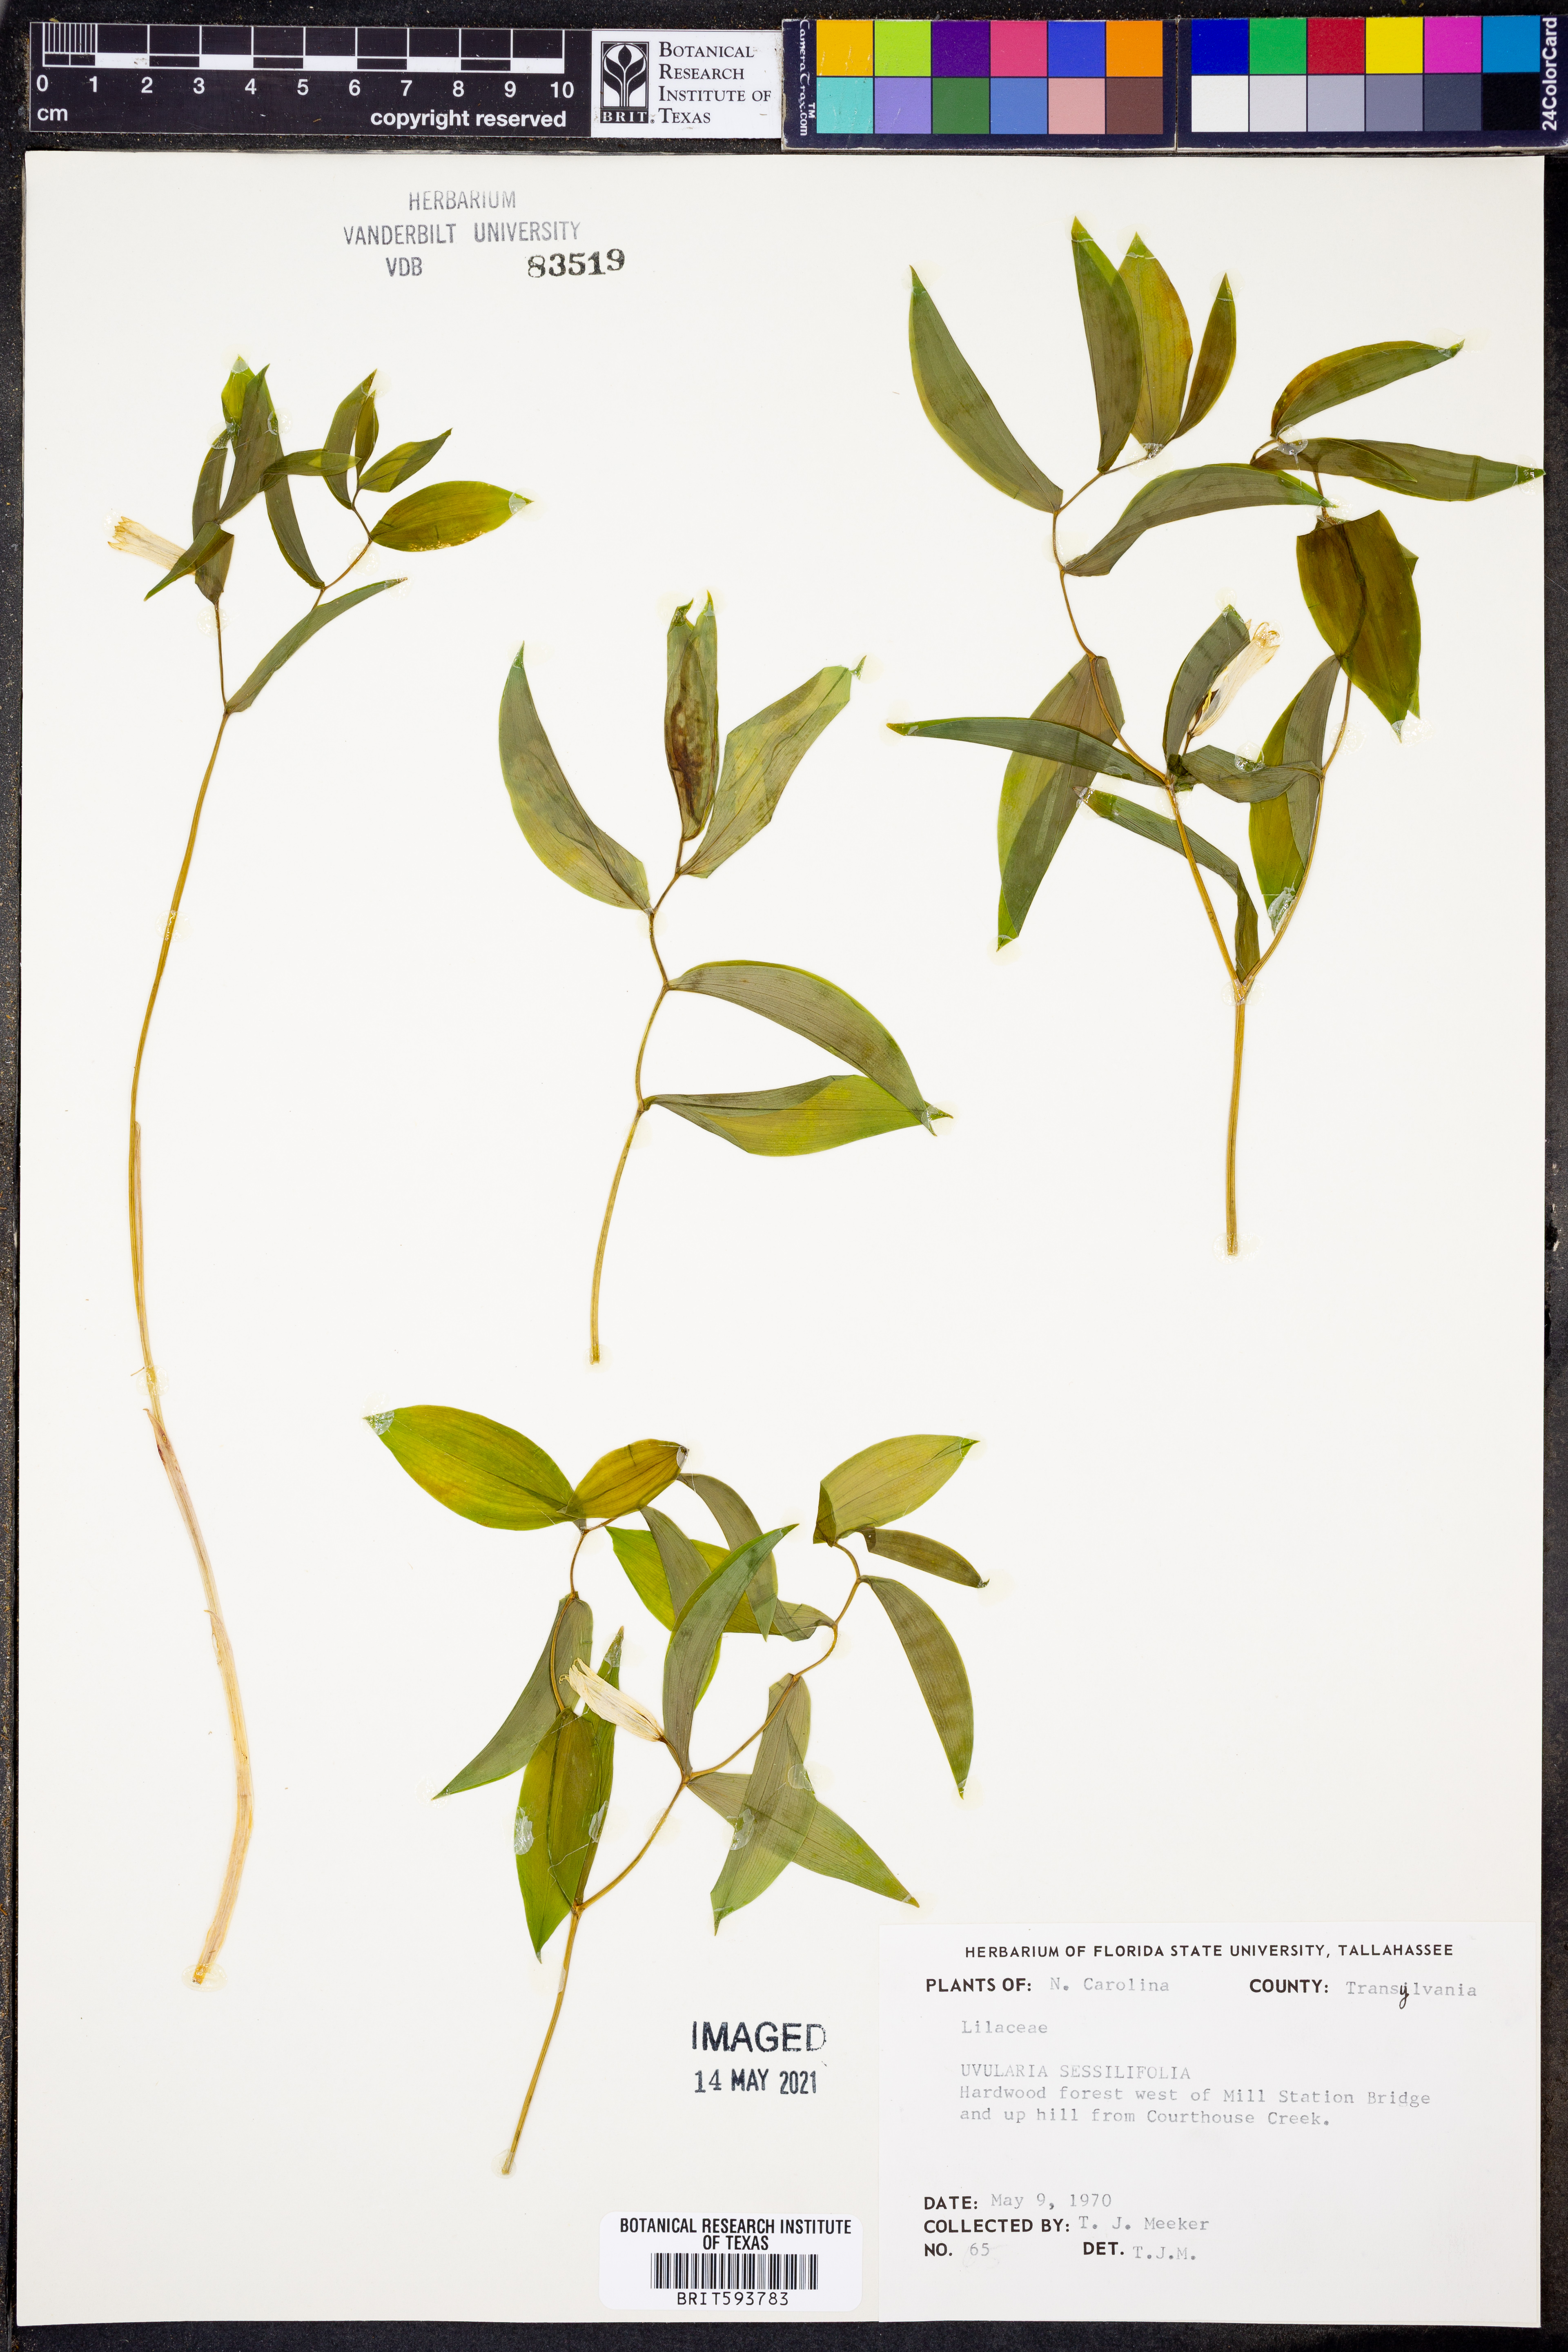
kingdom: Plantae
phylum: Tracheophyta
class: Liliopsida
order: Liliales
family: Colchicaceae
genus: Uvularia
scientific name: Uvularia sessilifolia
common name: Straw-lily
